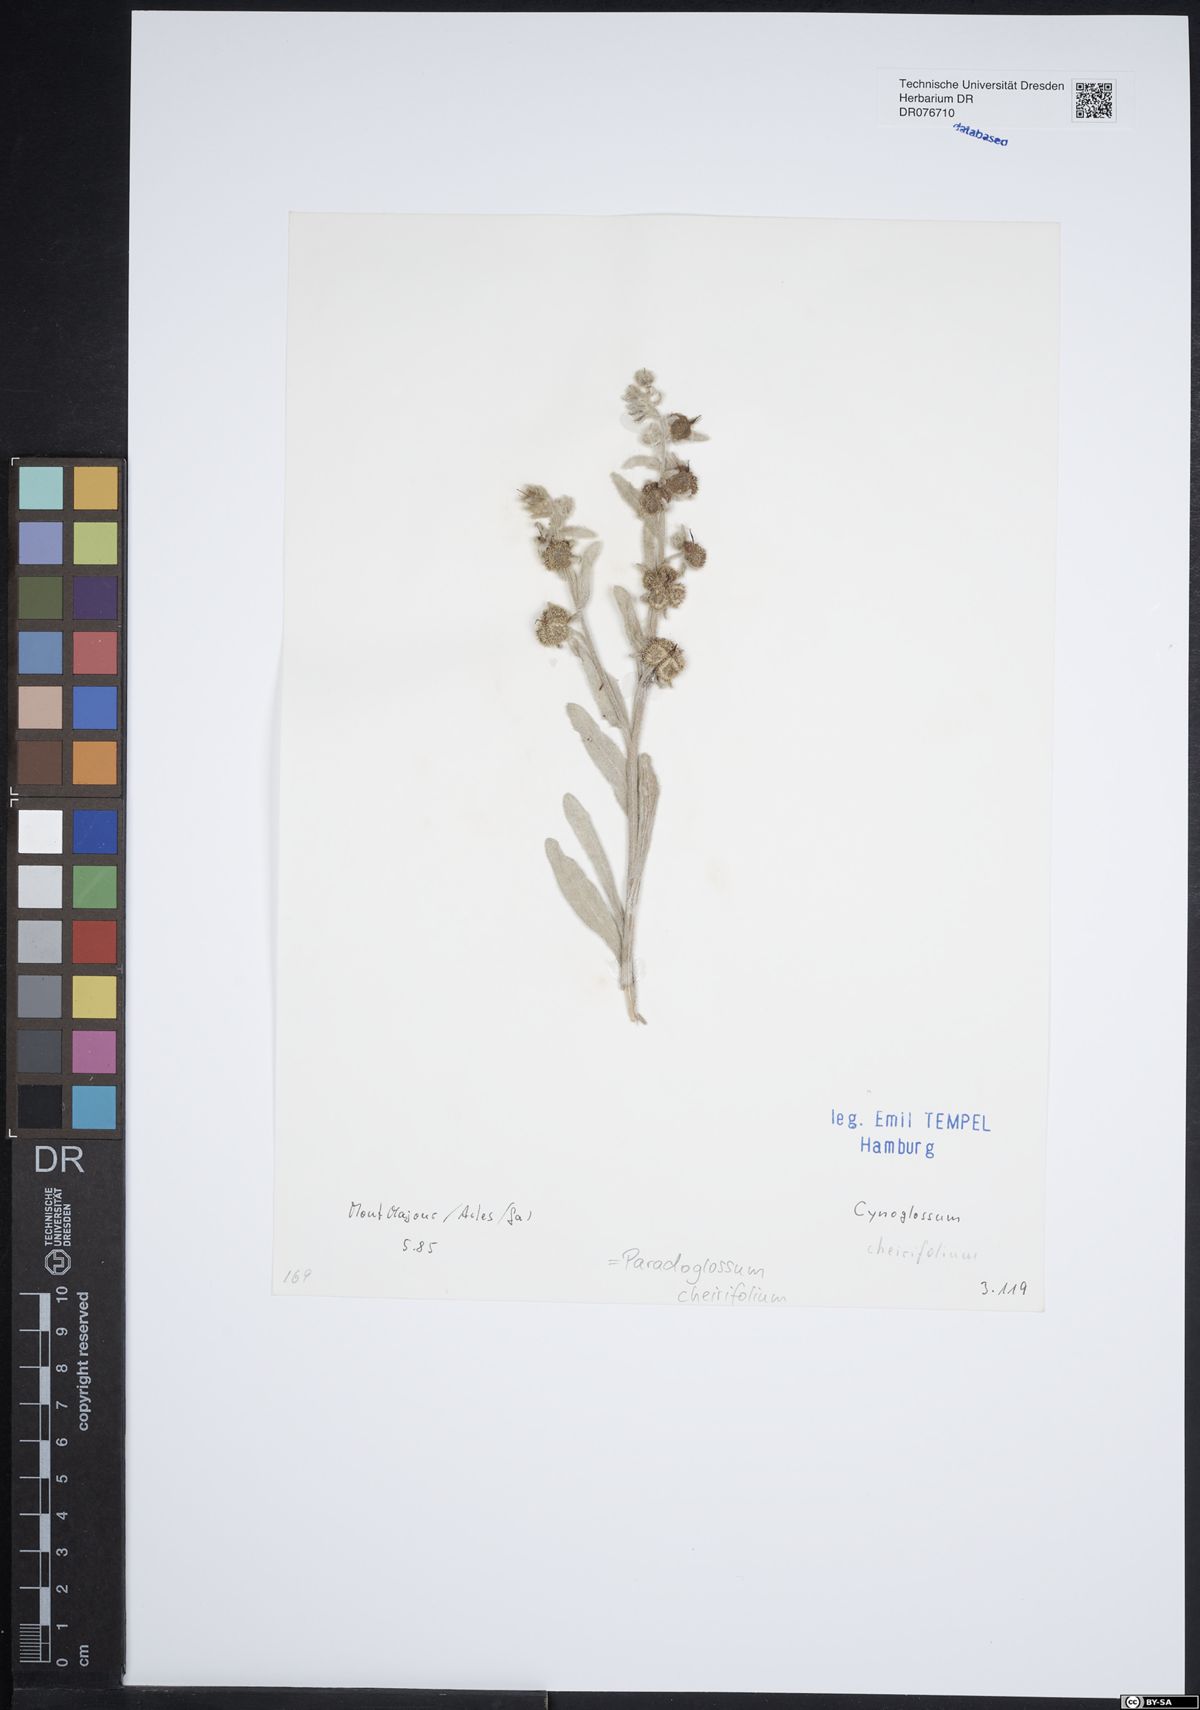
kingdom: Plantae
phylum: Tracheophyta
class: Magnoliopsida
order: Boraginales
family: Boraginaceae
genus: Pardoglossum
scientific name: Pardoglossum cheirifolium
